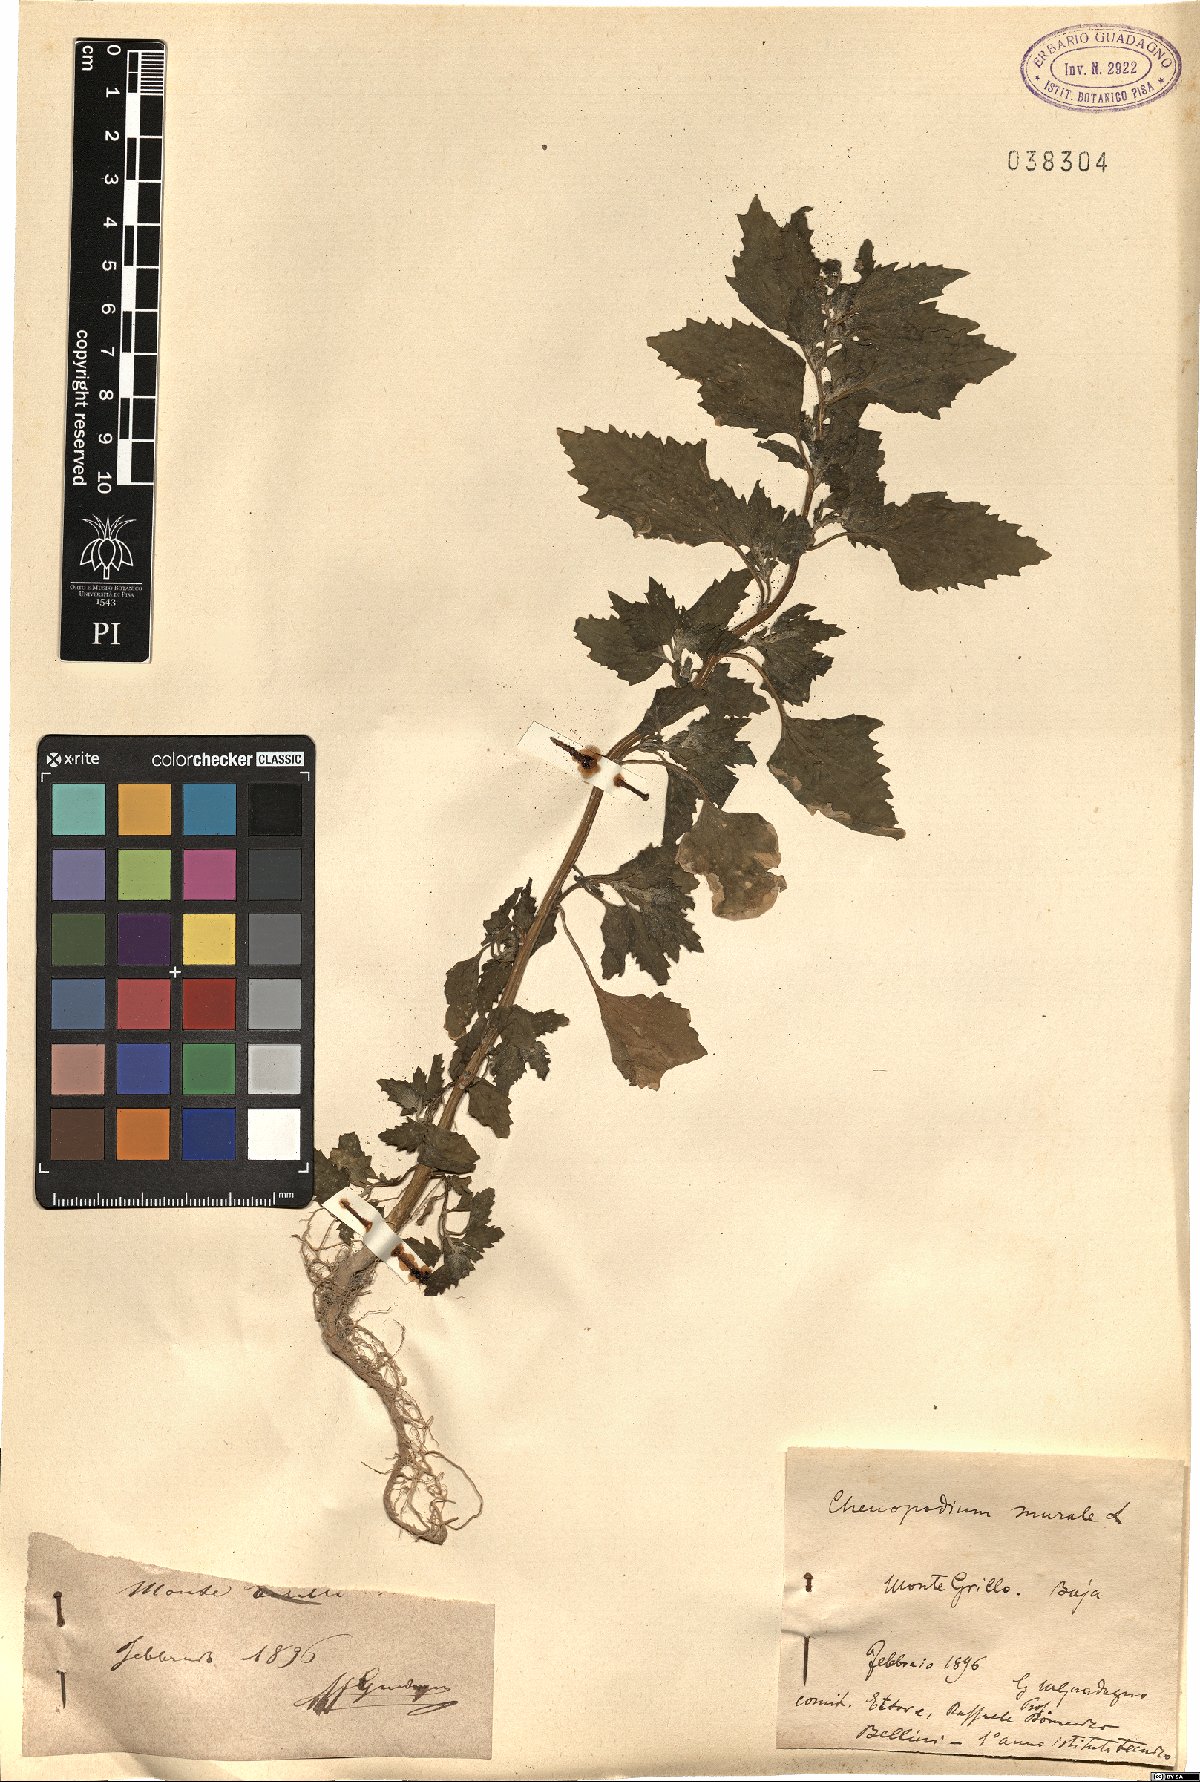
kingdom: Plantae
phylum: Tracheophyta
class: Magnoliopsida
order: Caryophyllales
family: Amaranthaceae
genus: Chenopodiastrum
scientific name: Chenopodiastrum murale
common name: Sowbane
